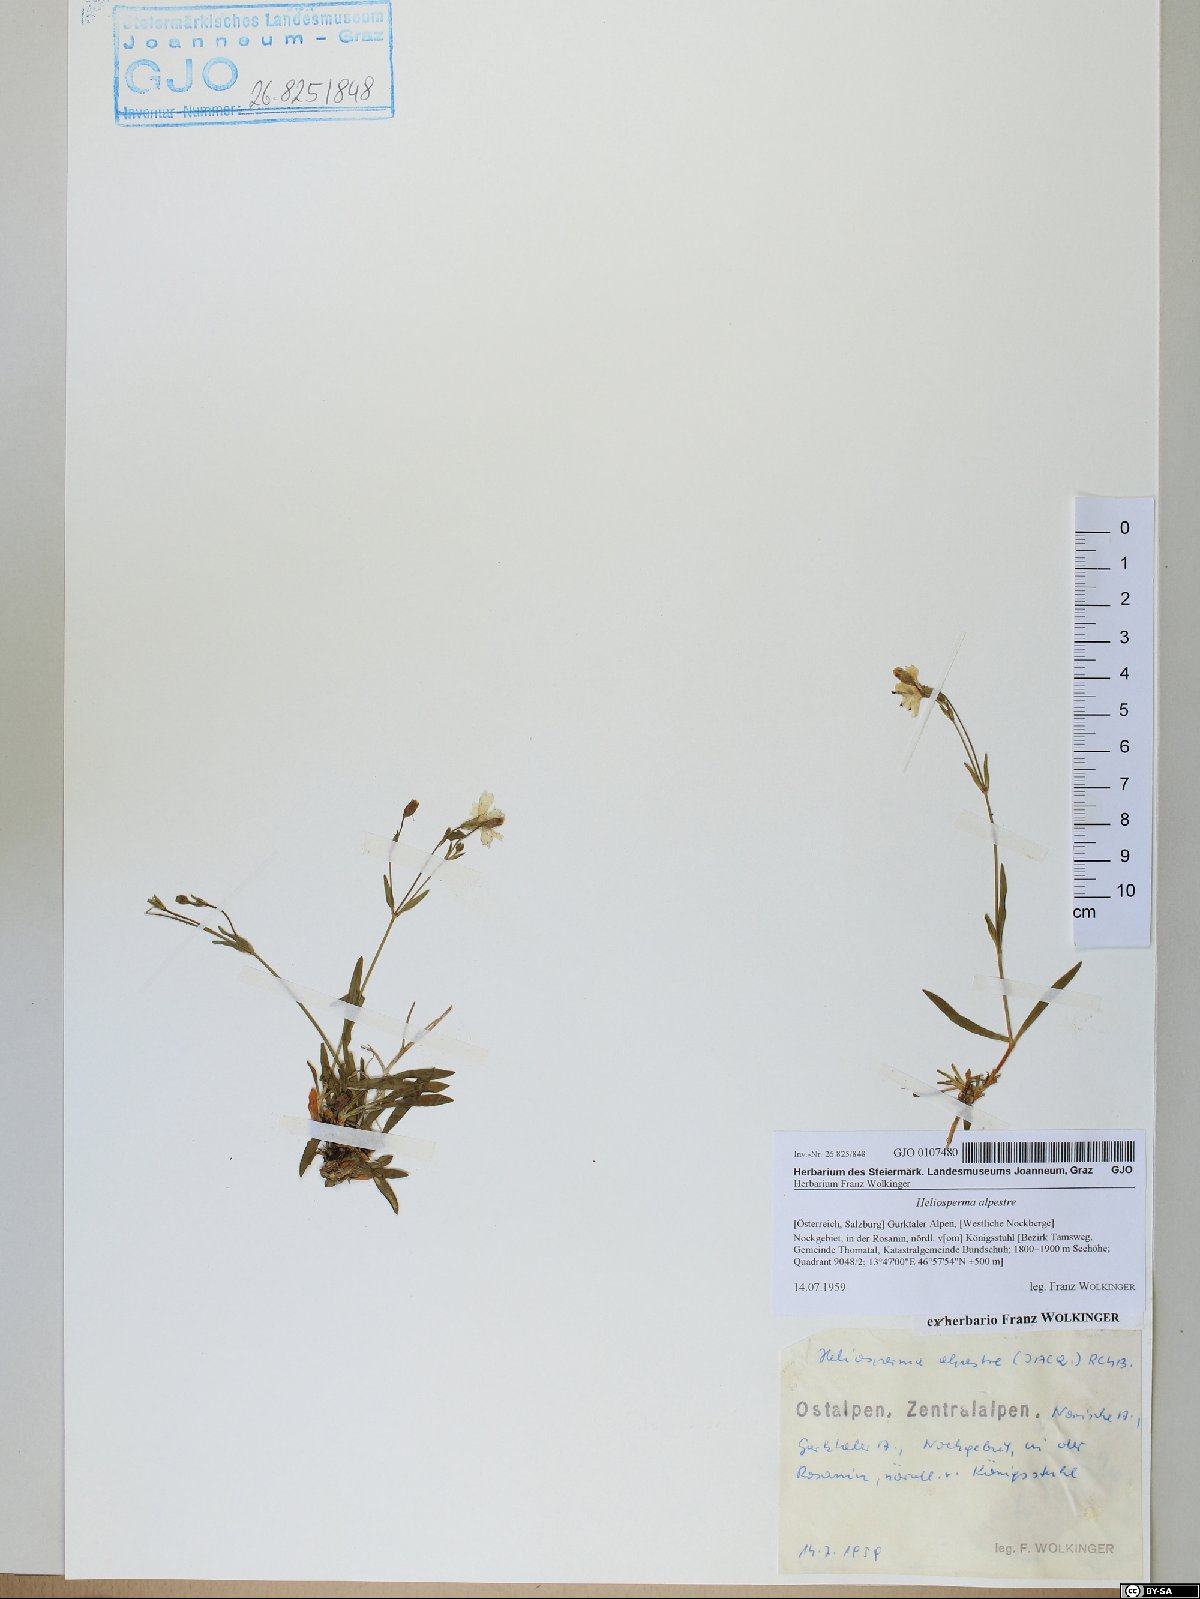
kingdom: Plantae
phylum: Tracheophyta
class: Magnoliopsida
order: Caryophyllales
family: Caryophyllaceae
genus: Heliosperma
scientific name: Heliosperma alpestre
